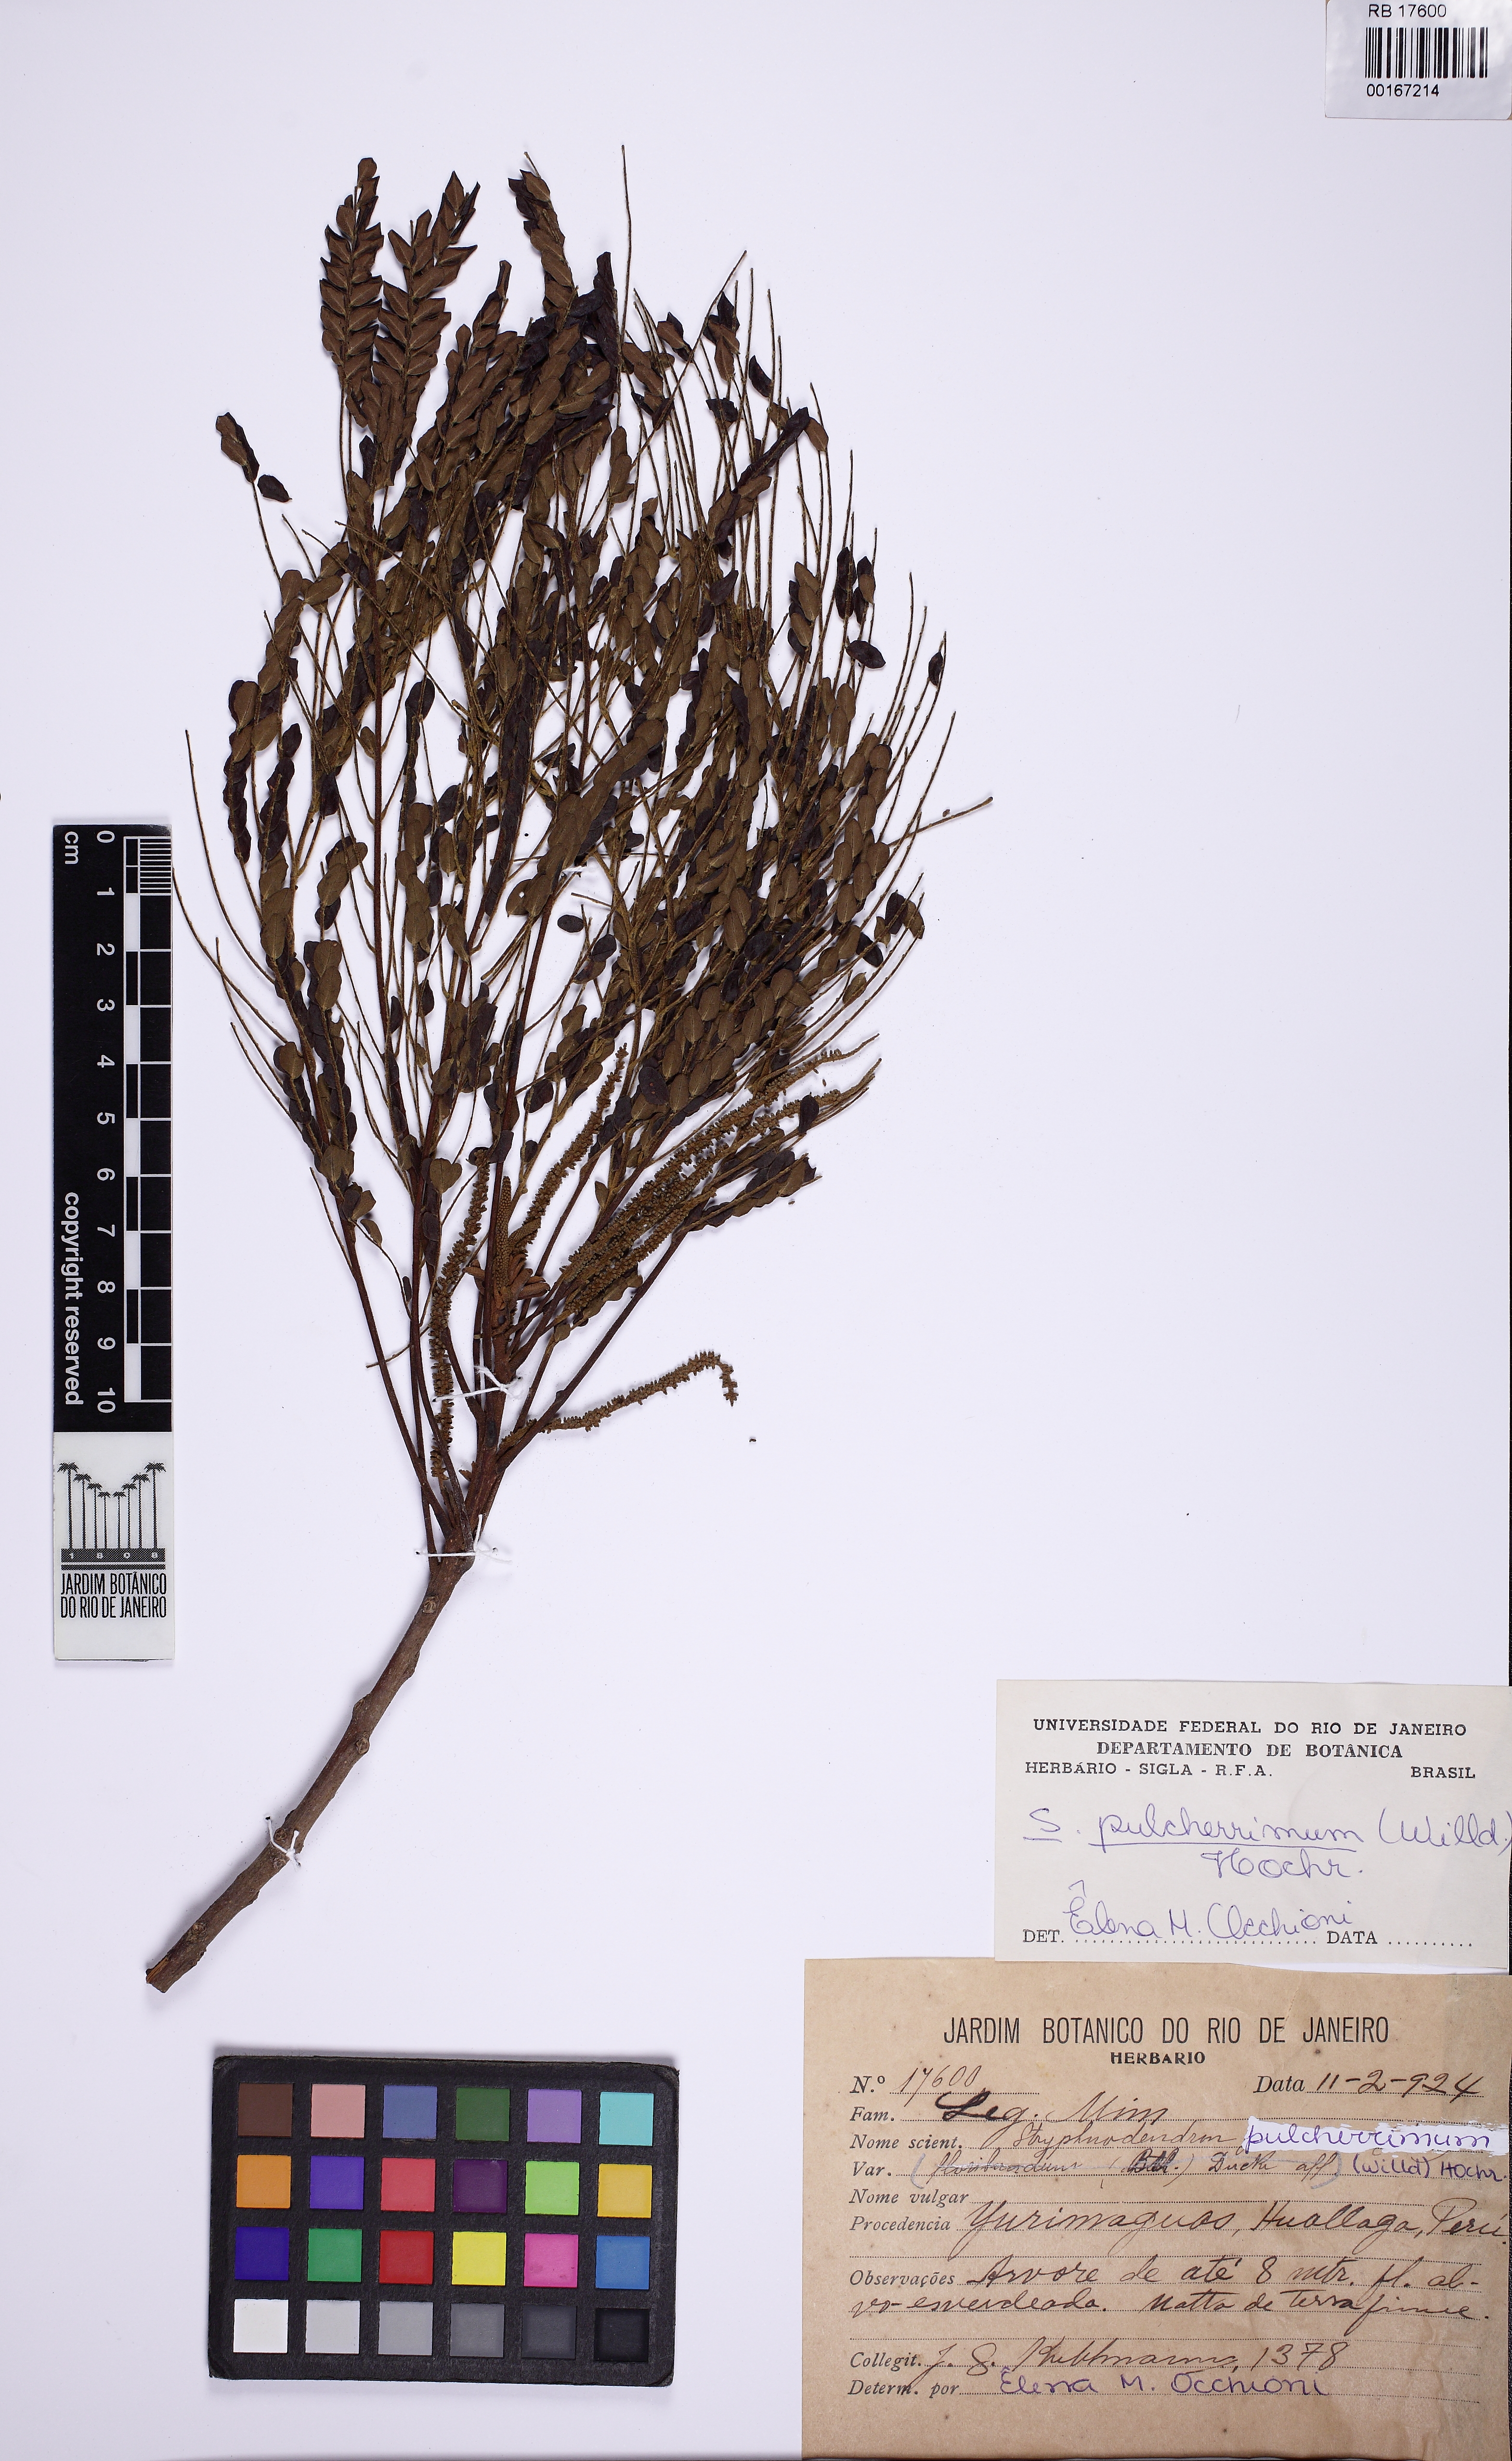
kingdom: Plantae
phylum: Tracheophyta
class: Magnoliopsida
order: Fabales
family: Fabaceae
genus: Stryphnodendron
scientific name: Stryphnodendron pulcherrimum
